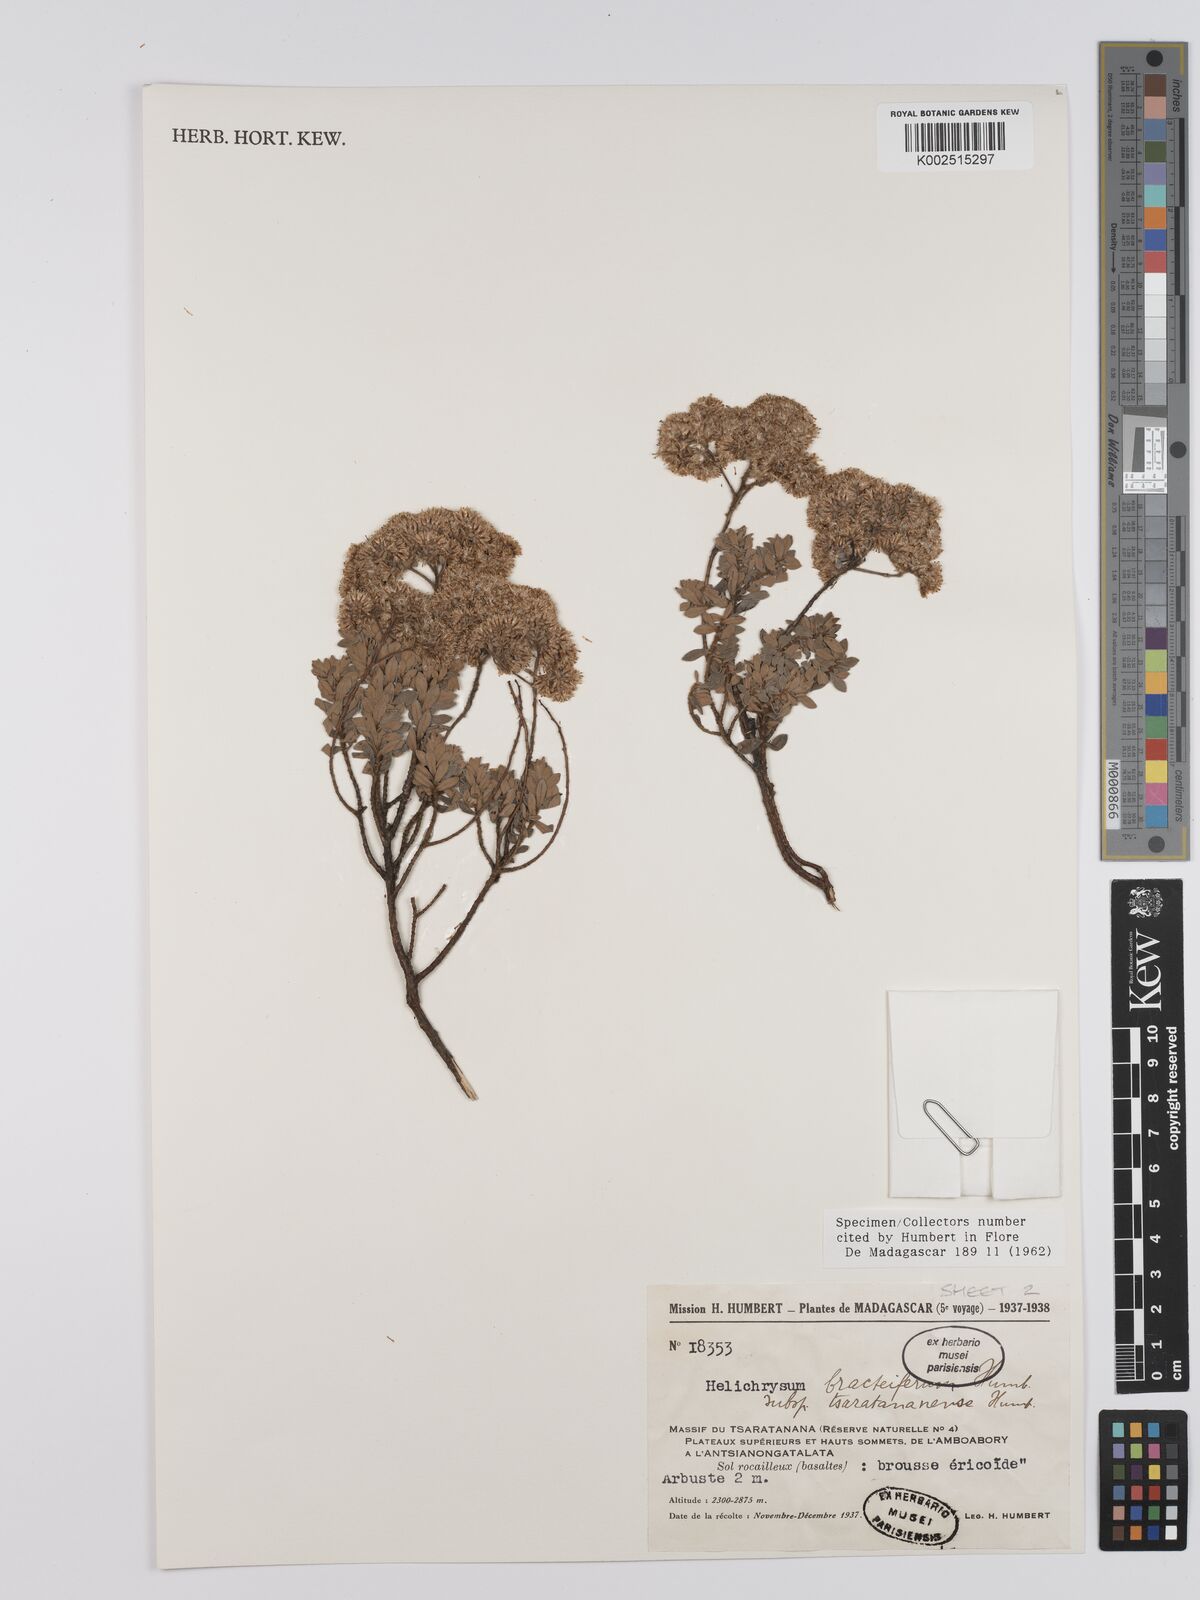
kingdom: Plantae
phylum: Tracheophyta
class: Magnoliopsida
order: Asterales
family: Asteraceae
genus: Helichrysum
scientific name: Helichrysum bracteiferum
